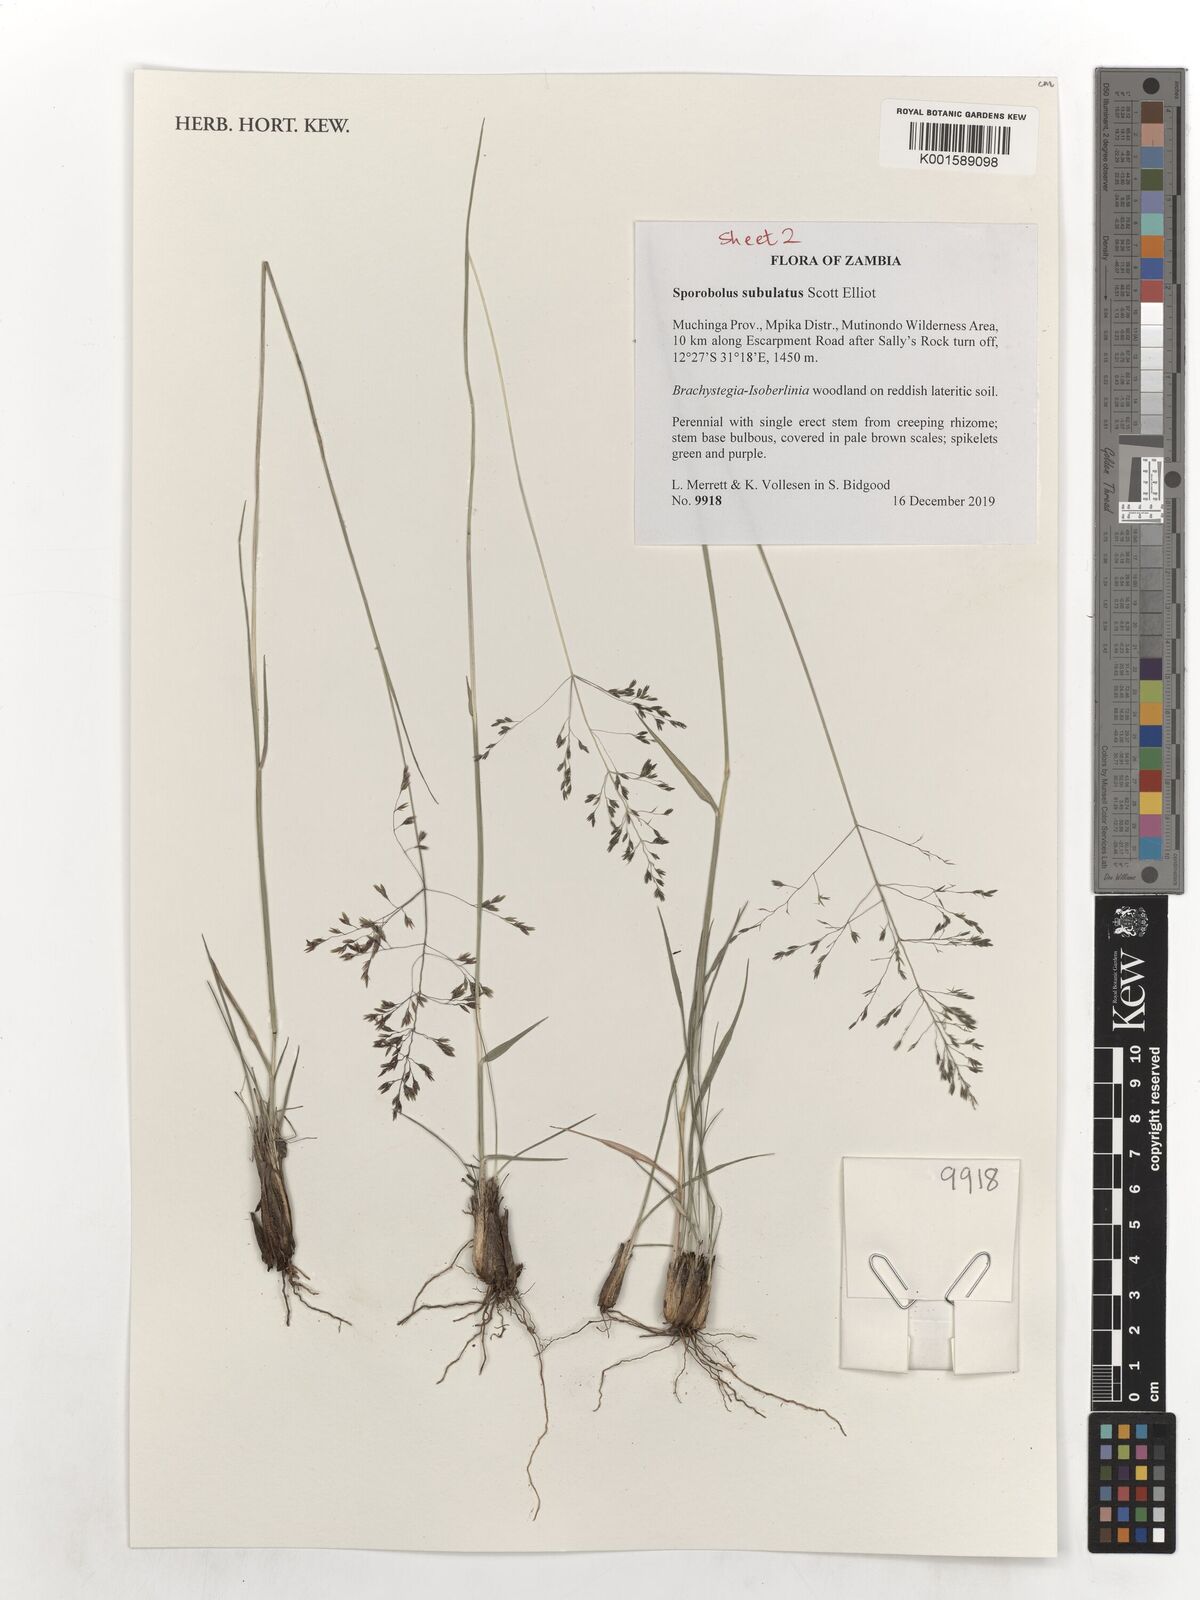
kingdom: Plantae
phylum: Tracheophyta
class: Liliopsida
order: Poales
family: Poaceae
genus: Sporobolus
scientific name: Sporobolus subulatus
